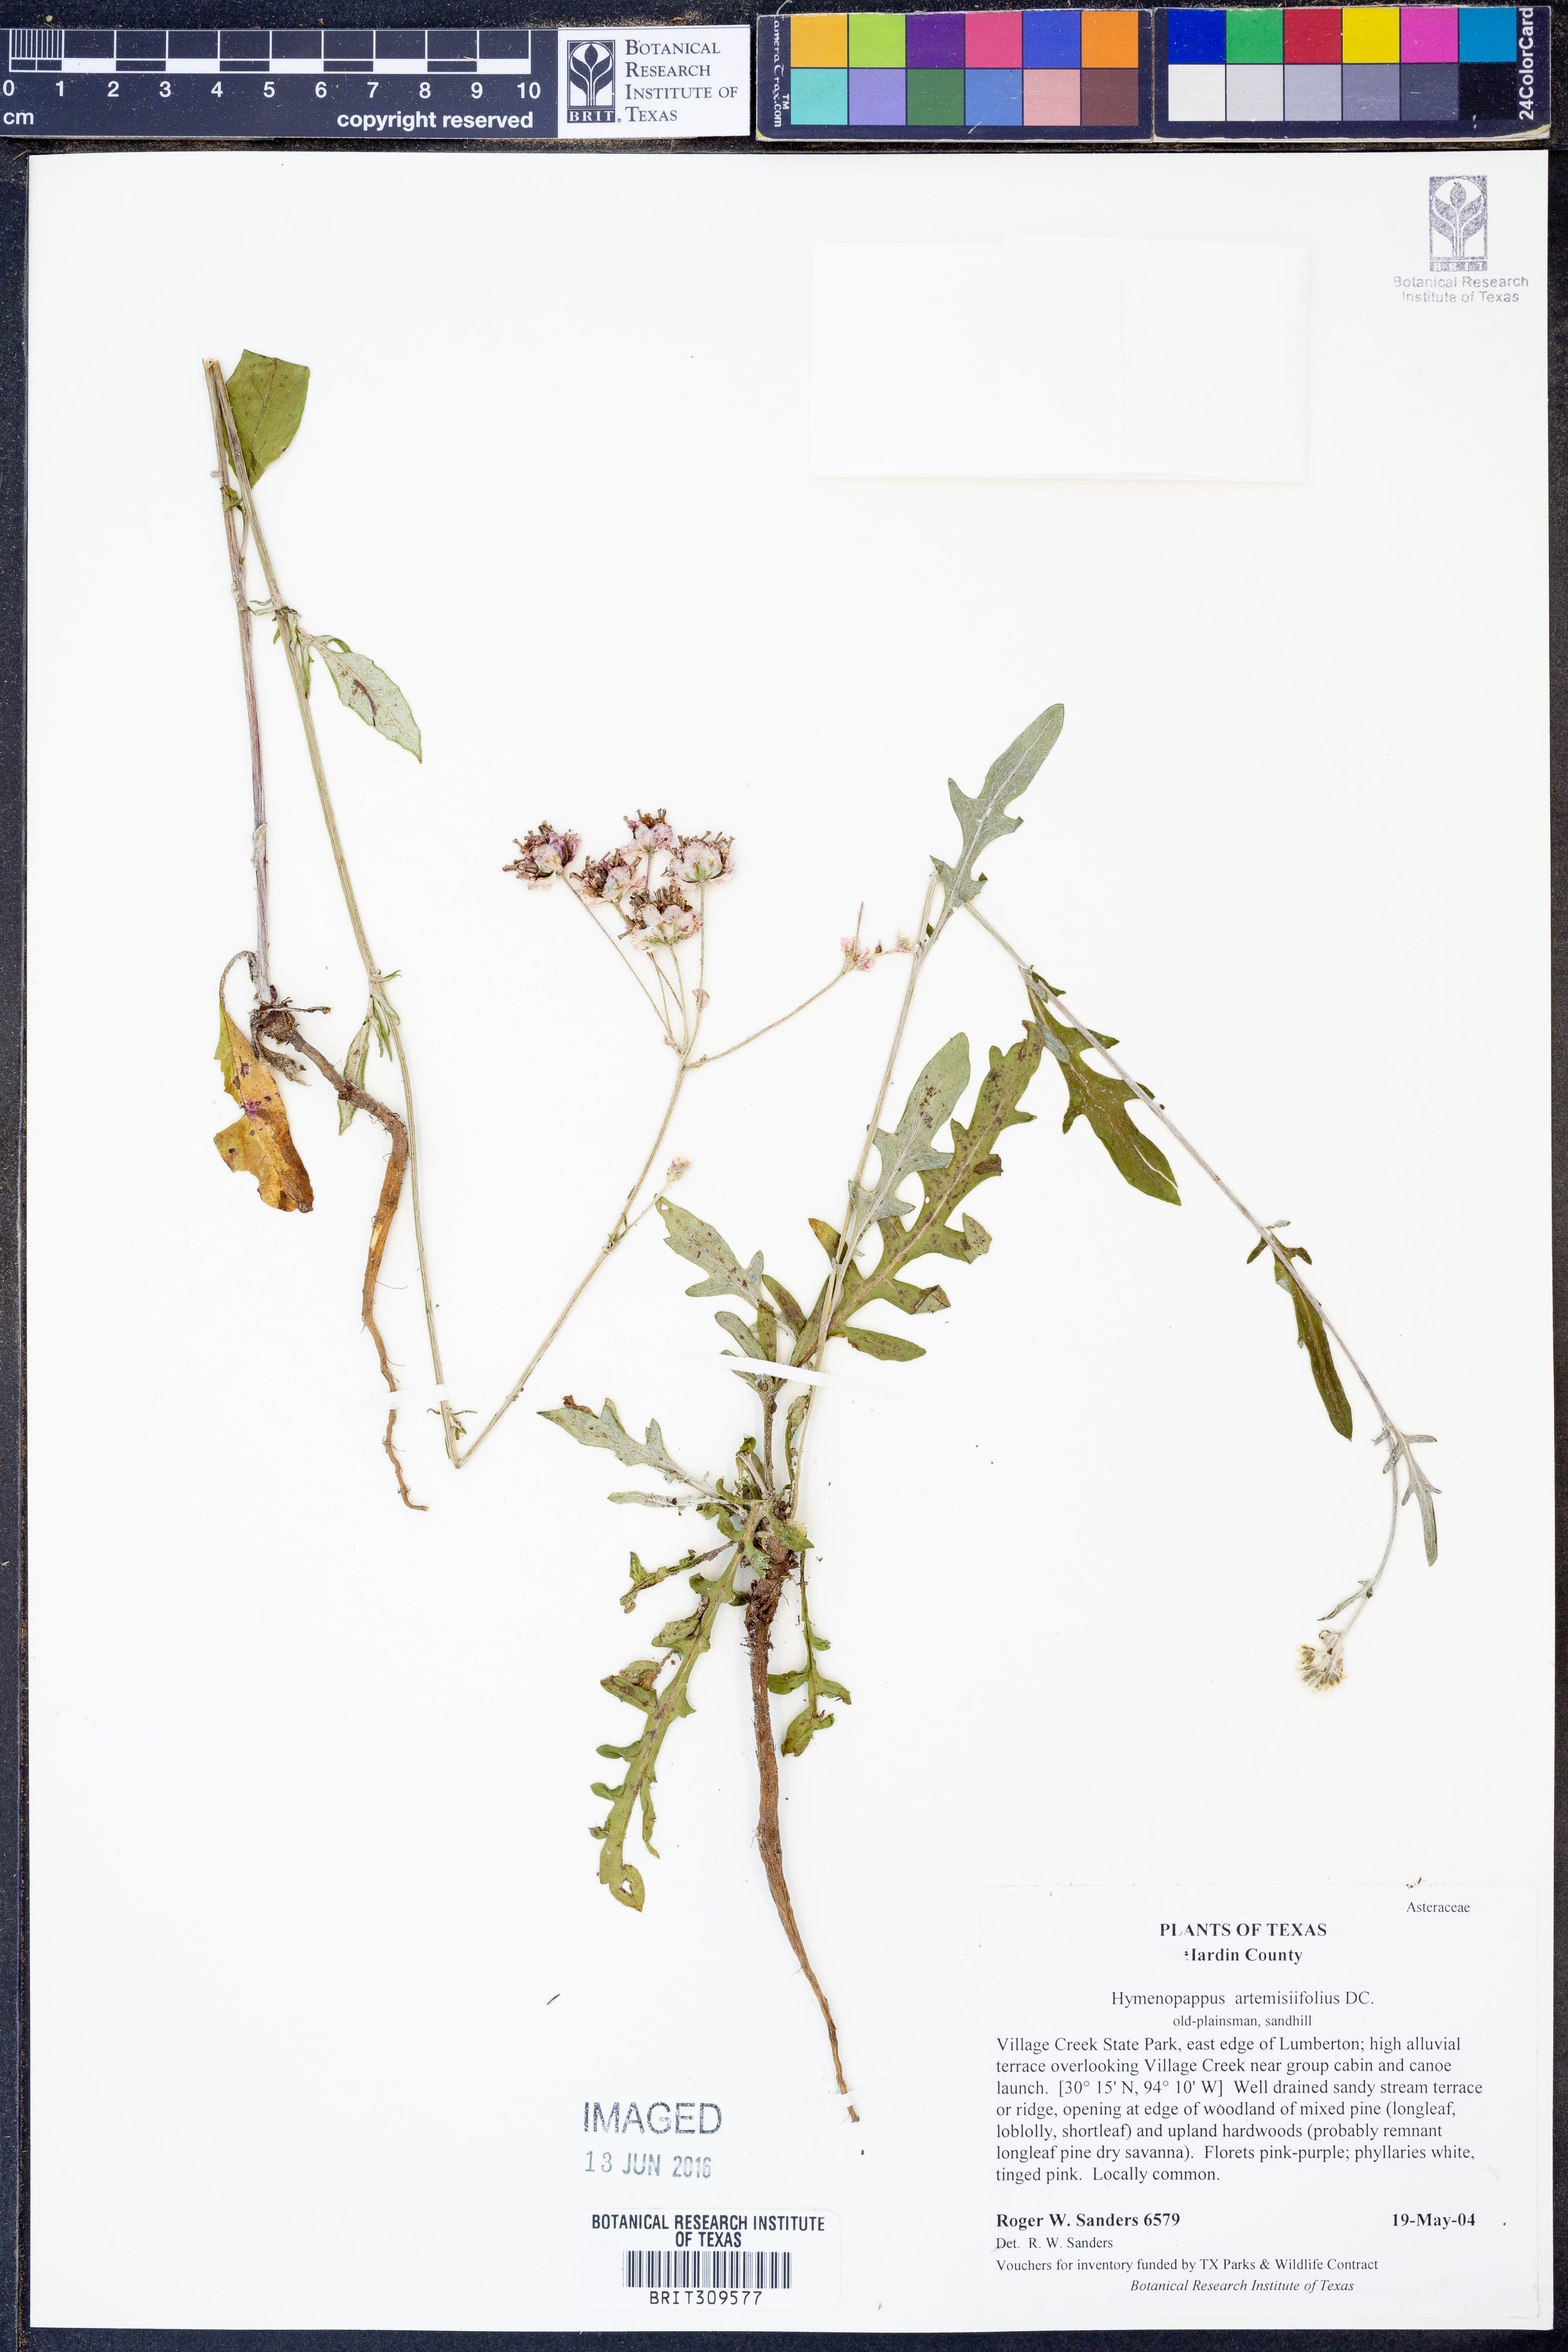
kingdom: Plantae
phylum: Tracheophyta
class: Magnoliopsida
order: Asterales
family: Asteraceae
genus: Hymenopappus
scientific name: Hymenopappus artemisiifolius
